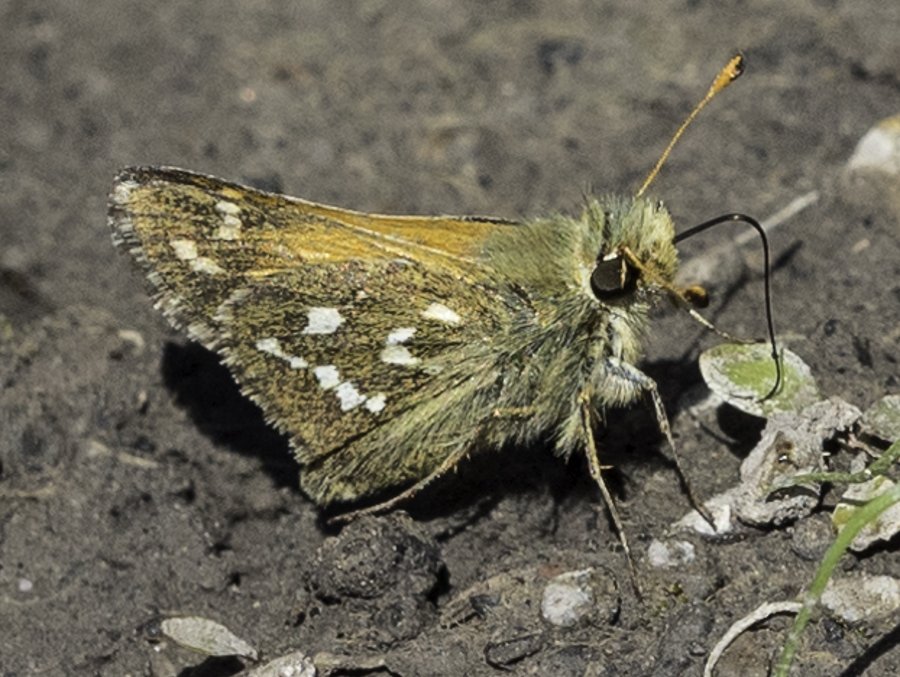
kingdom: Animalia
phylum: Arthropoda
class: Insecta
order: Lepidoptera
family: Hesperiidae
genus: Hesperia
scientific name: Hesperia comma
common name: Common Branded Skipper
